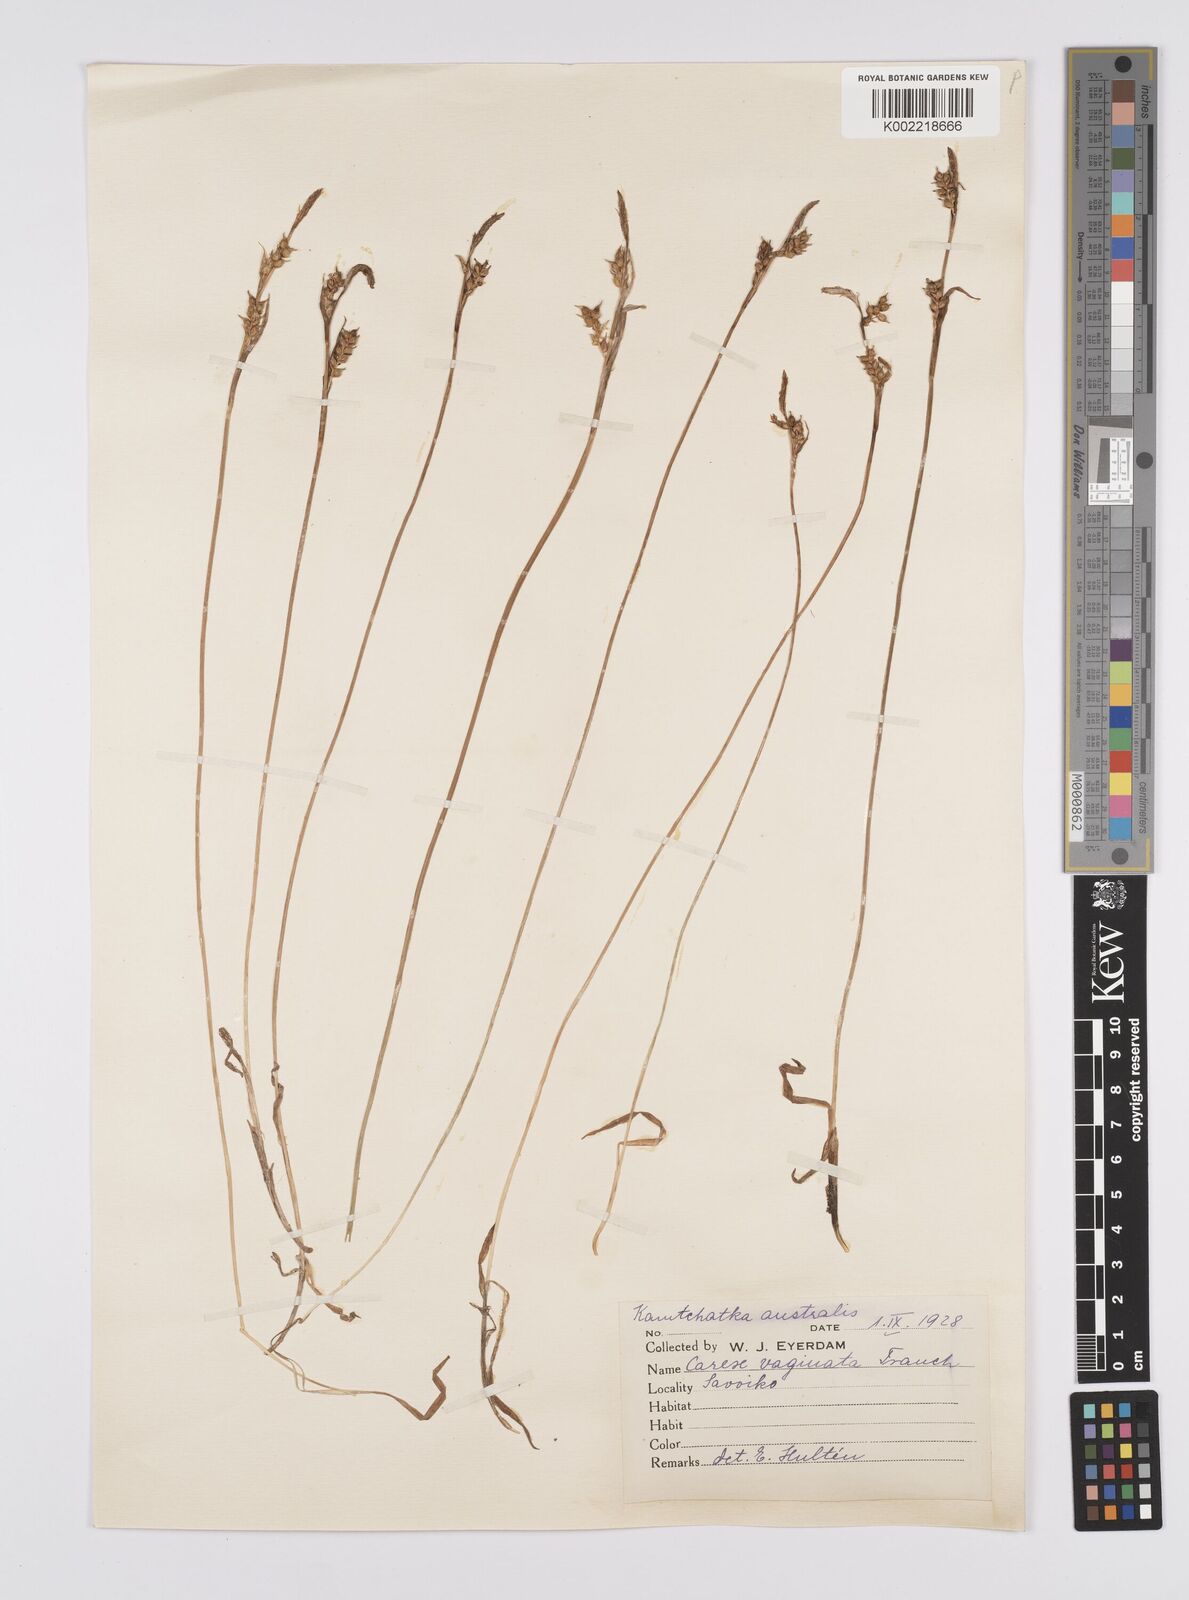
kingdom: Plantae
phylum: Tracheophyta
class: Liliopsida
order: Poales
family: Cyperaceae
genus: Carex
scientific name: Carex vaginata
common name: Sheathed sedge
